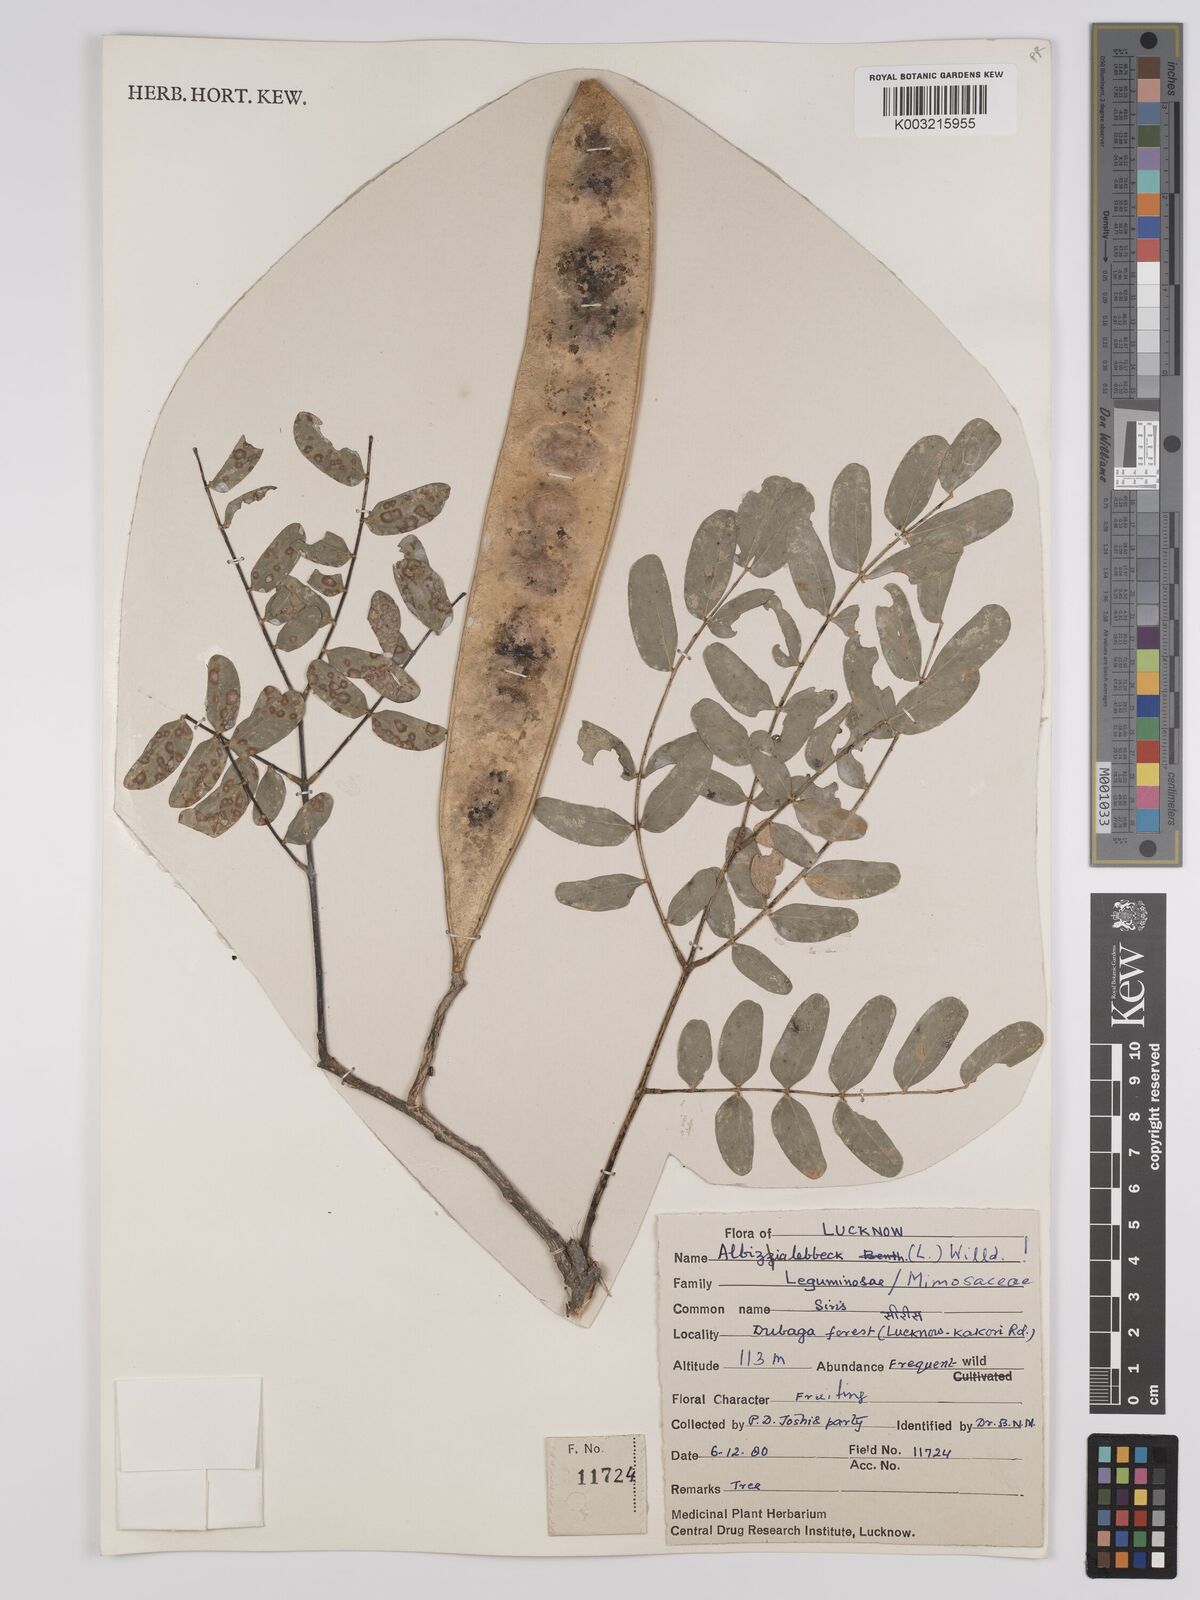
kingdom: Plantae
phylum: Tracheophyta
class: Magnoliopsida
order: Fabales
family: Fabaceae
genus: Albizia
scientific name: Albizia lebbeck
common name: Woman's tongue
